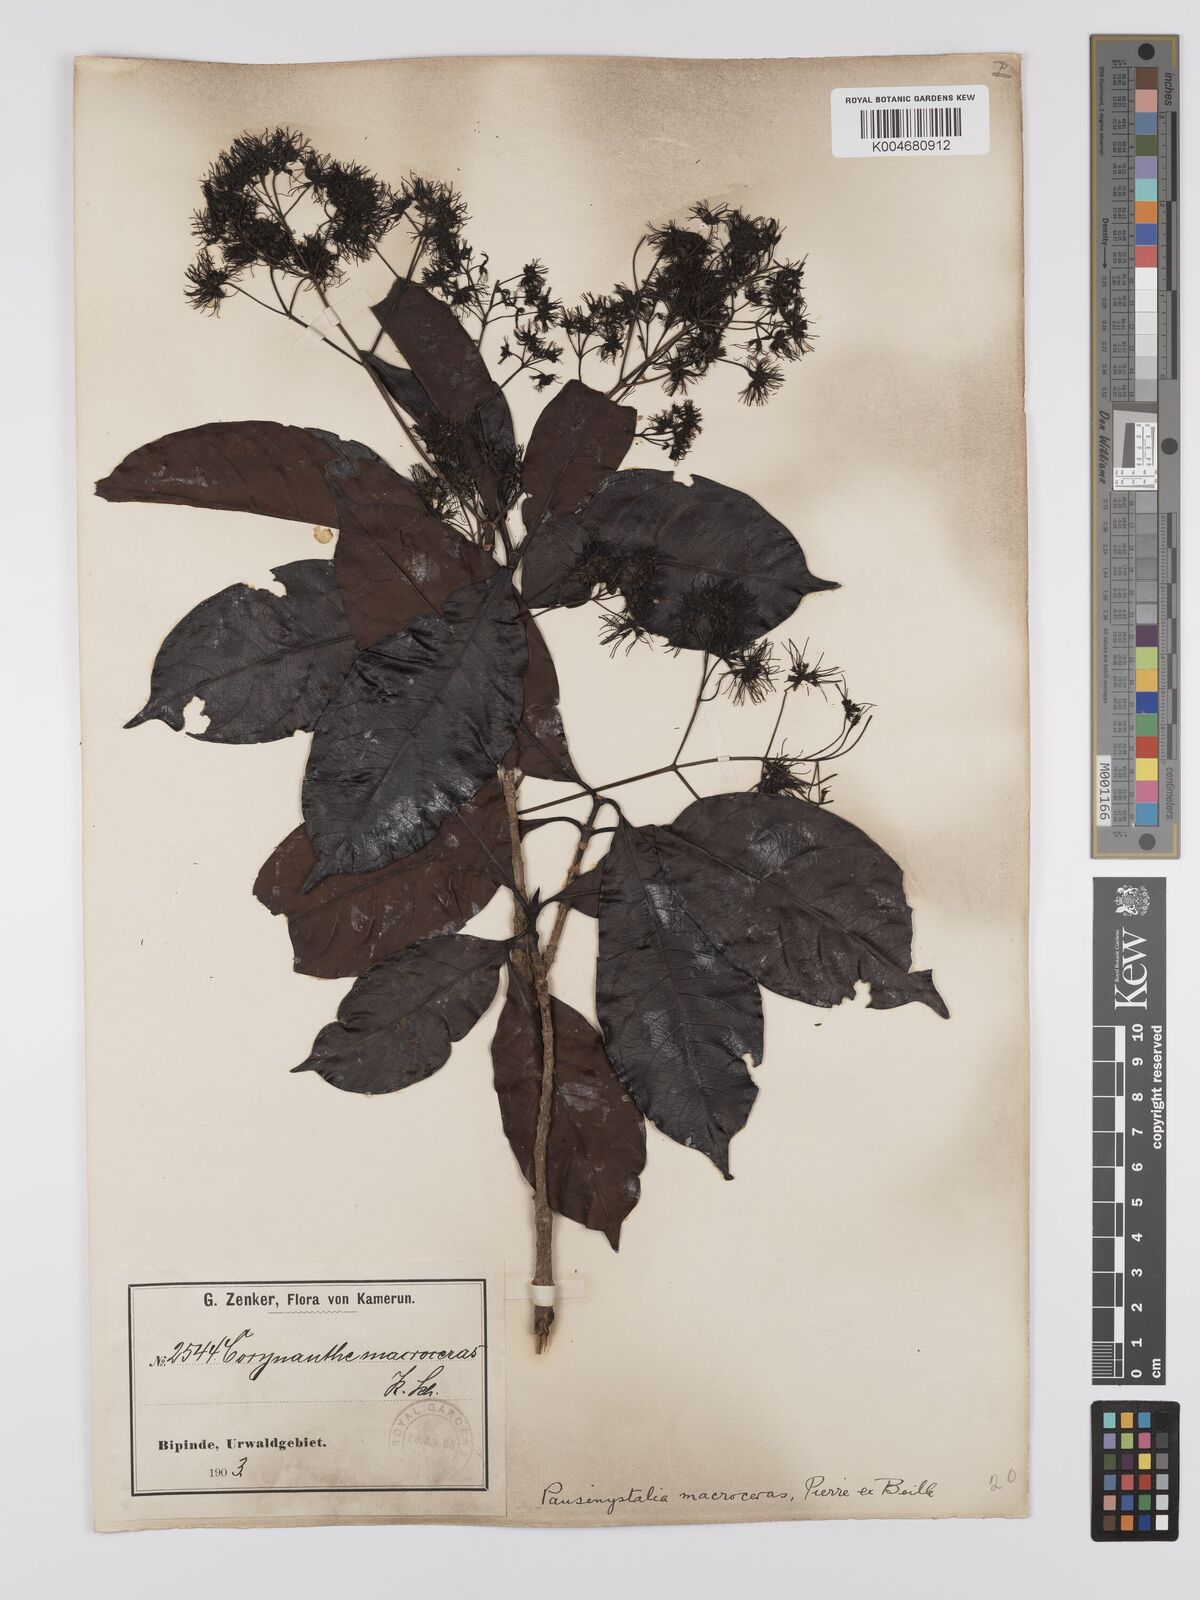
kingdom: Plantae
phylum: Tracheophyta
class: Magnoliopsida
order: Gentianales
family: Rubiaceae
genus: Corynanthe
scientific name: Corynanthe macroceras
